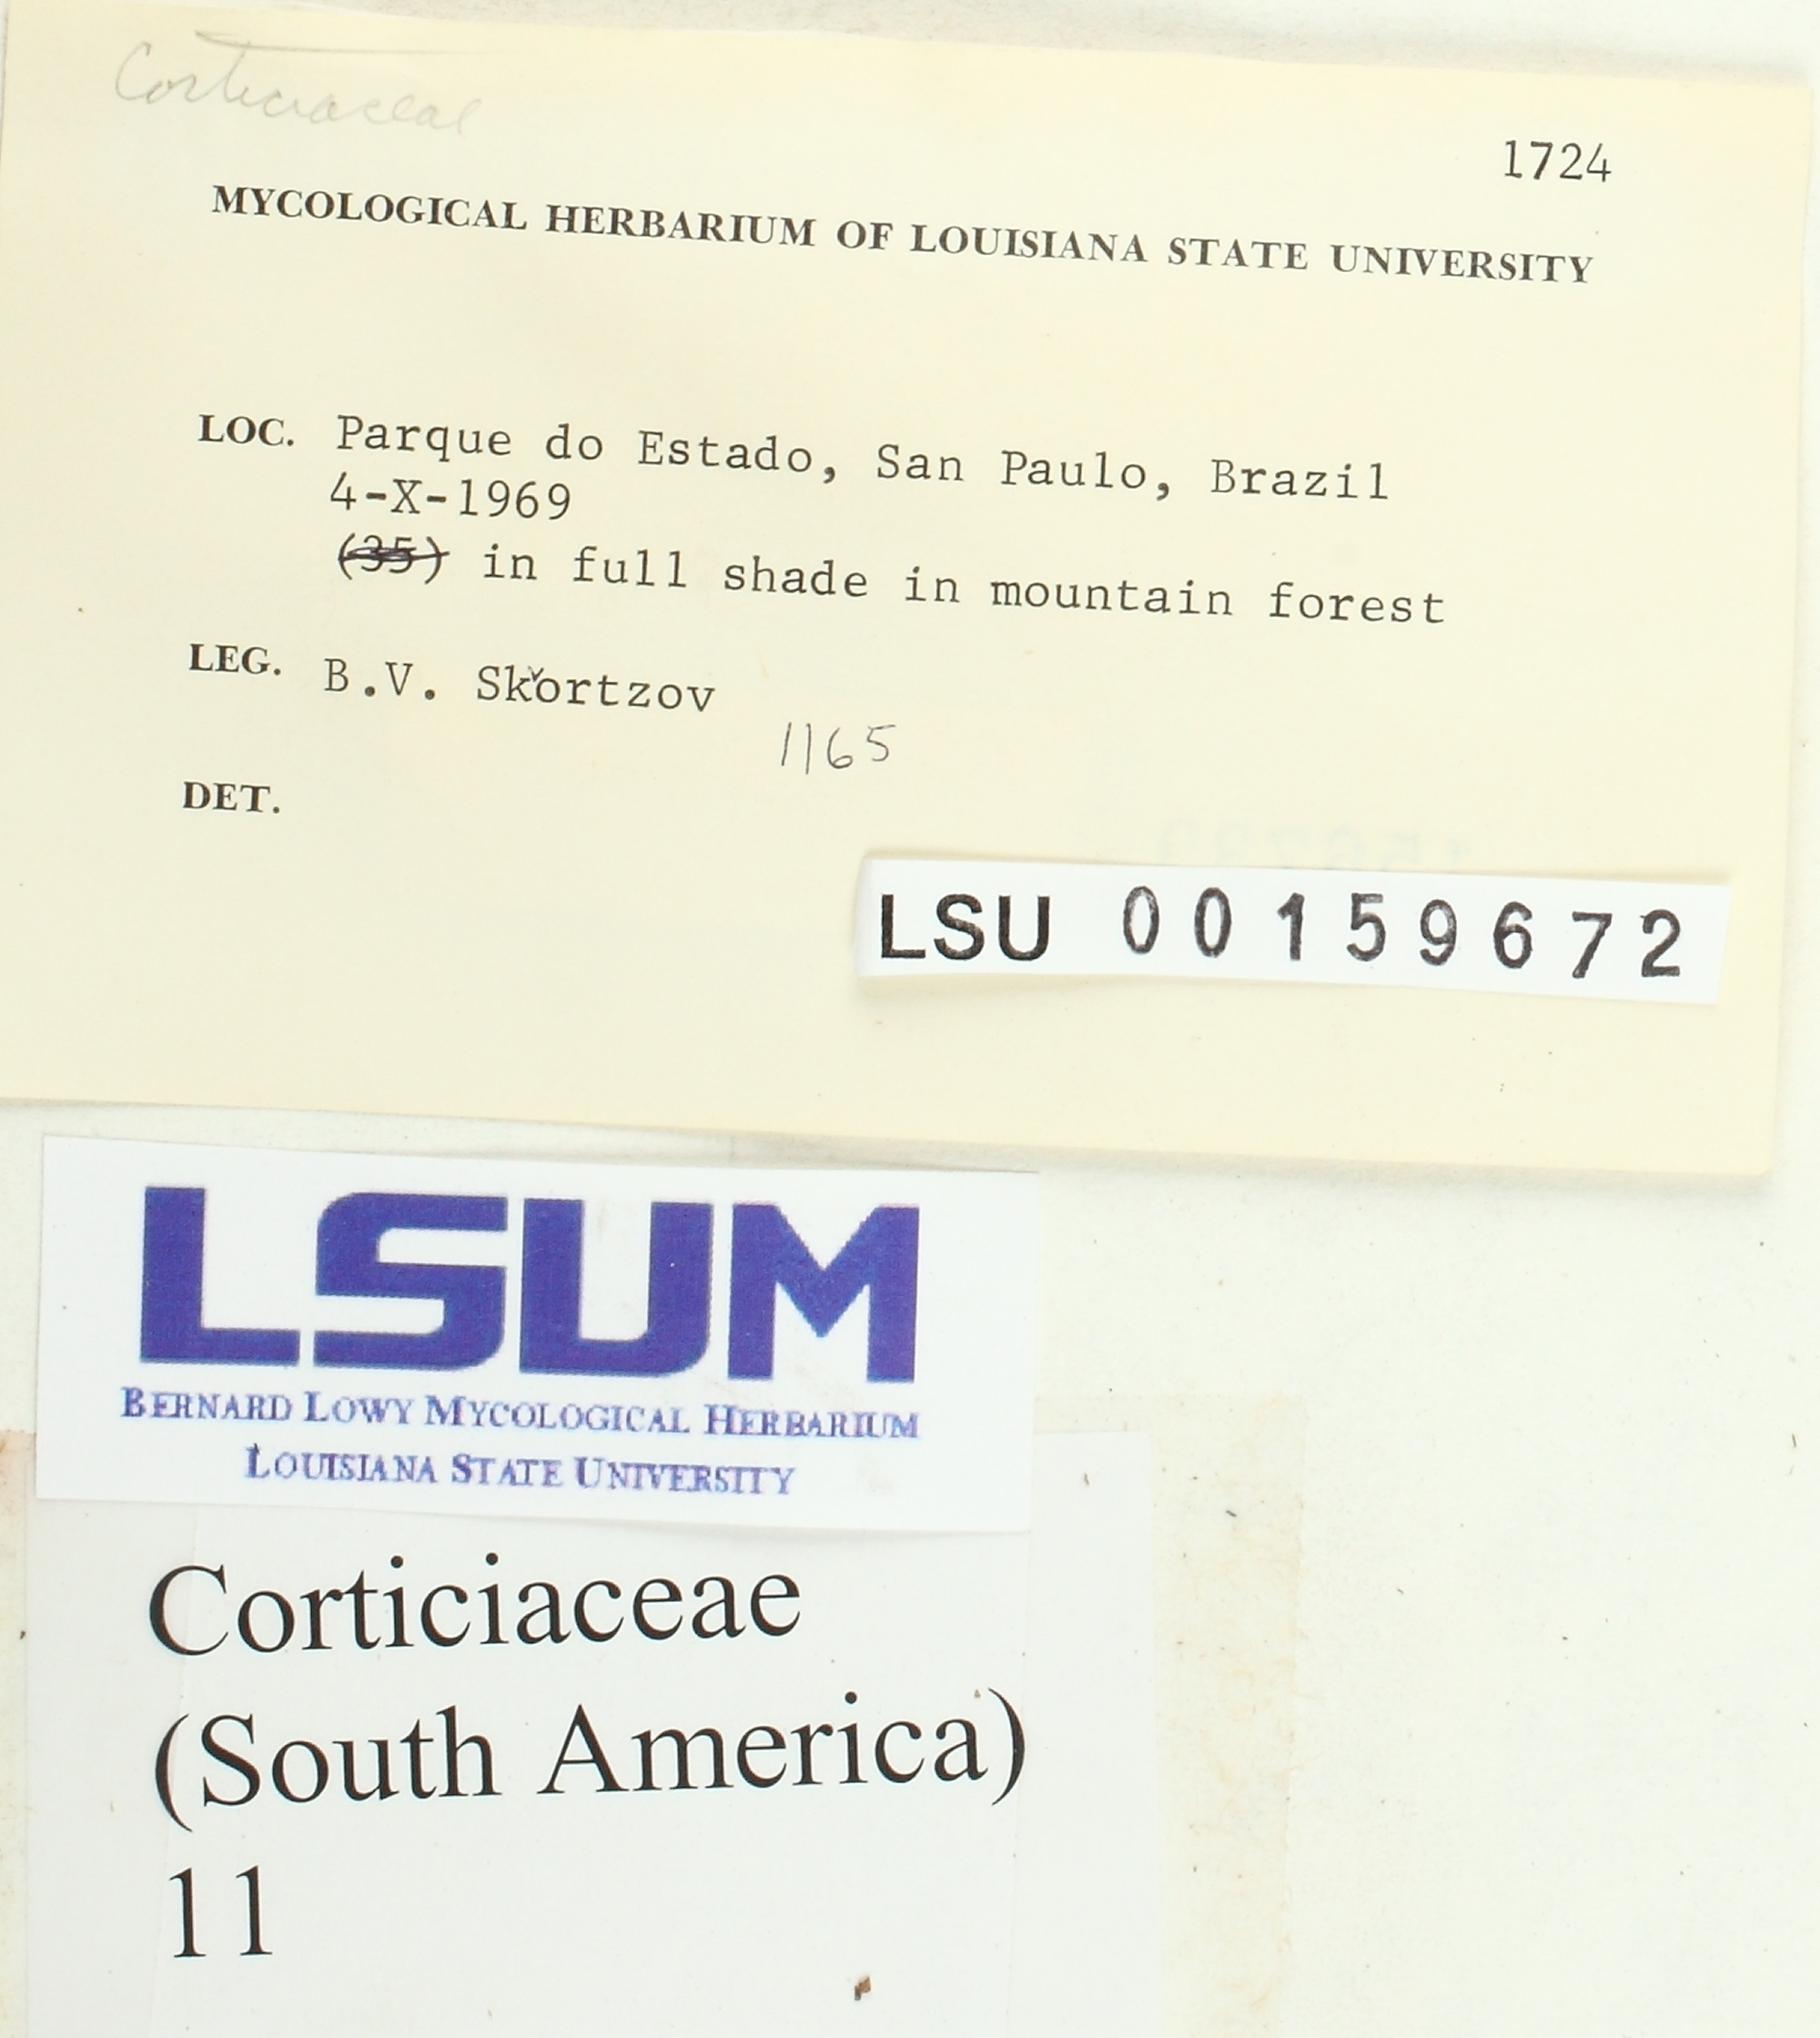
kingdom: Fungi
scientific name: Fungi
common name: Fungi
